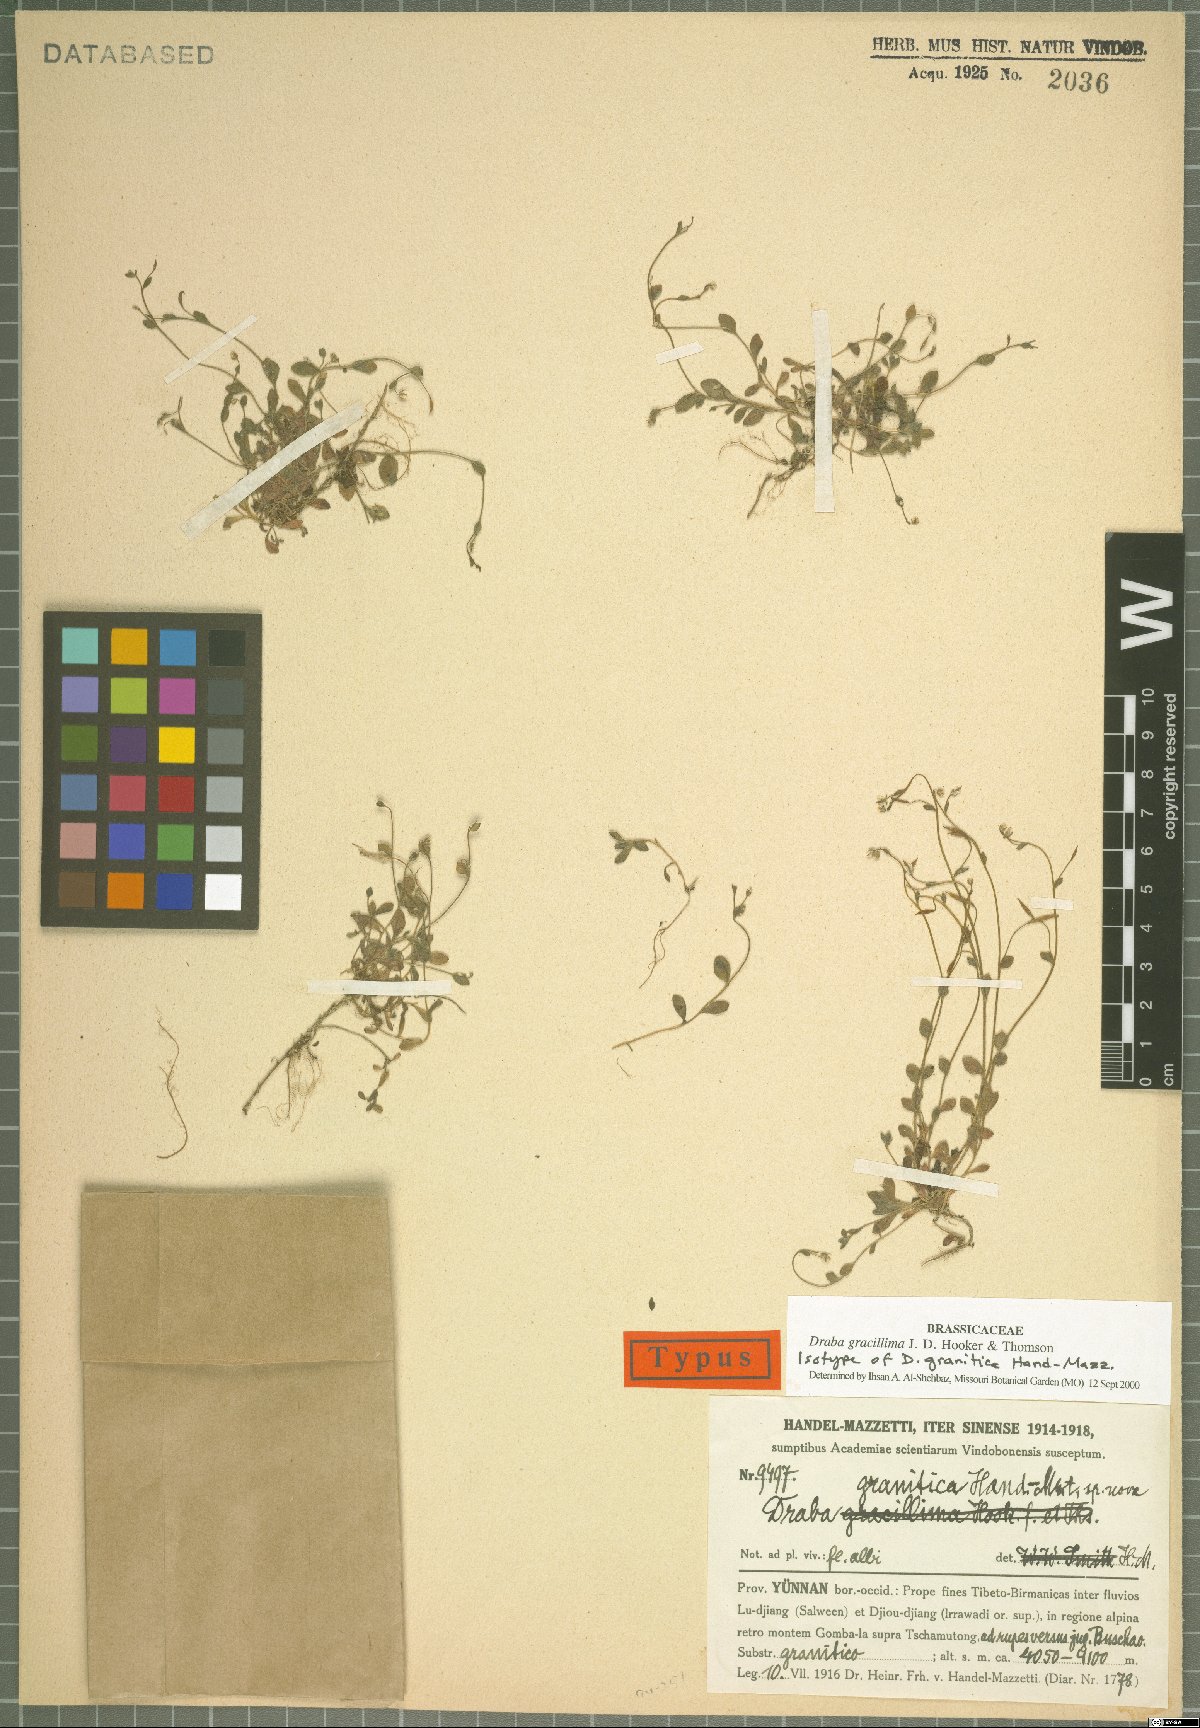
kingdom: Plantae
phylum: Tracheophyta
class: Magnoliopsida
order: Brassicales
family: Brassicaceae
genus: Draba
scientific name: Draba gracillima
